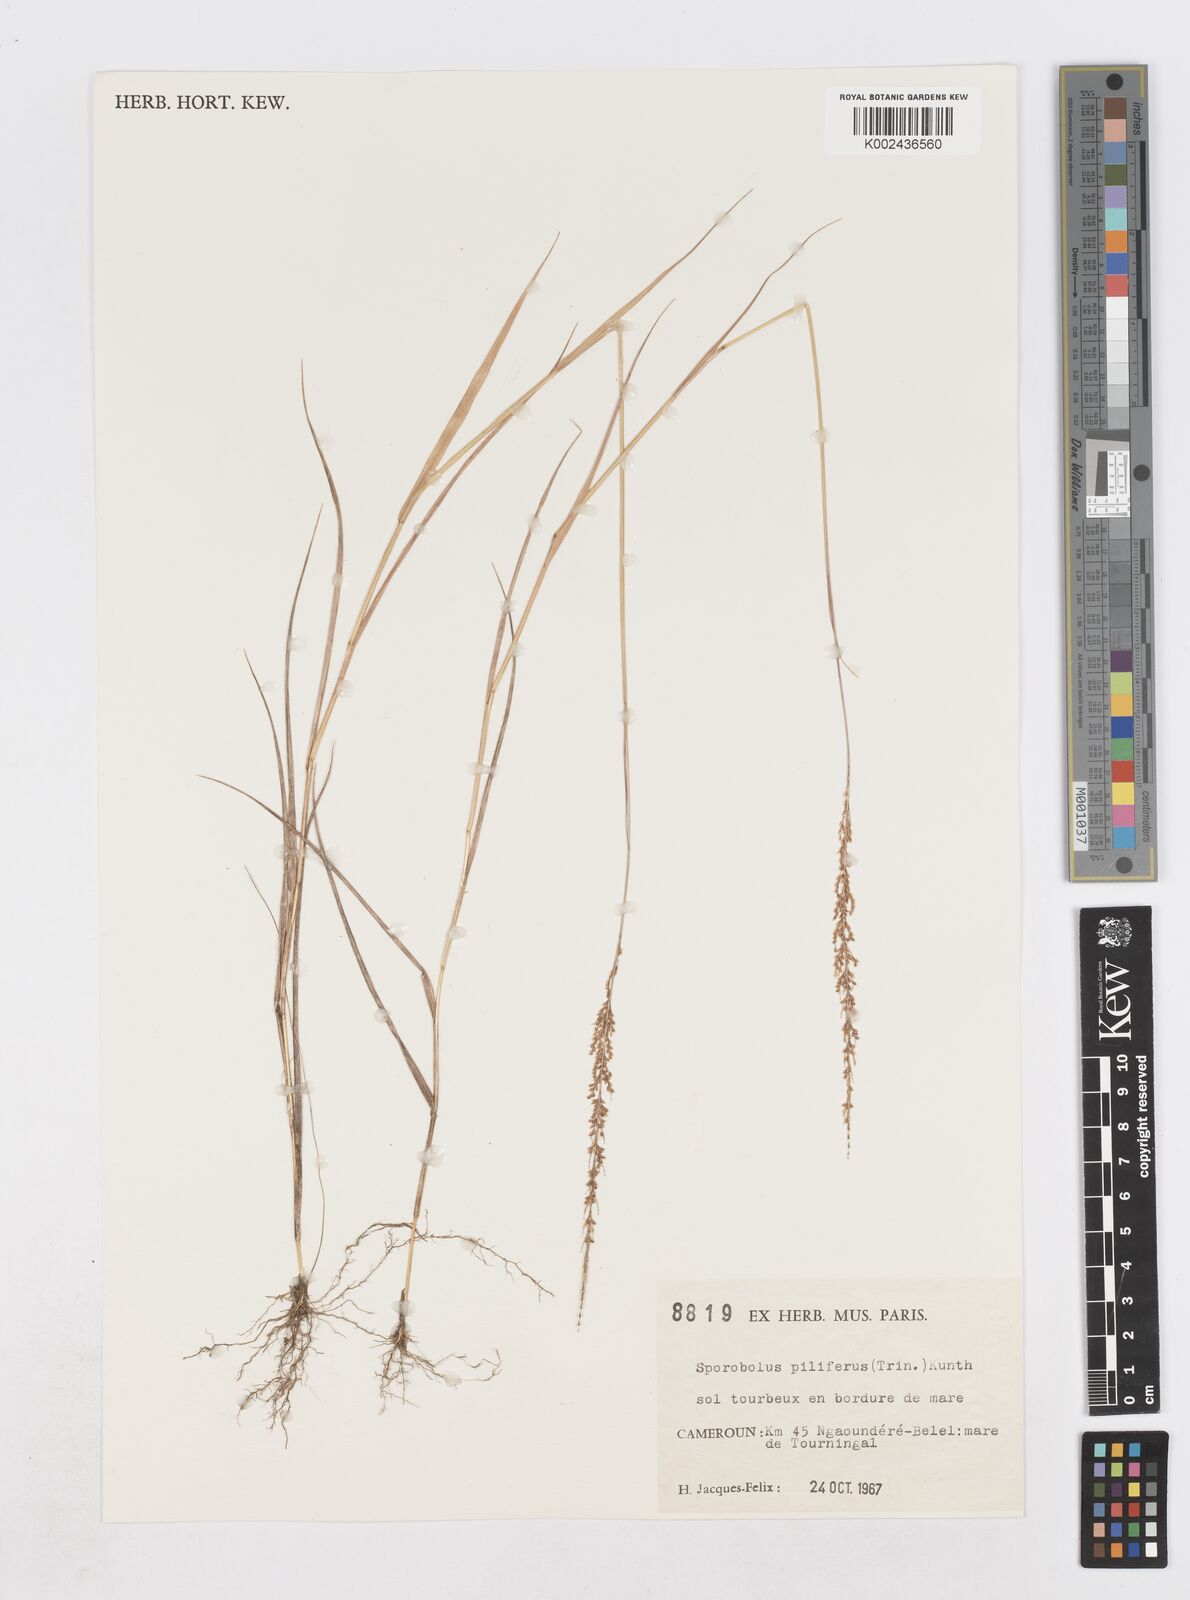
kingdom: Plantae
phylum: Tracheophyta
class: Liliopsida
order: Poales
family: Poaceae
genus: Sporobolus
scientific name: Sporobolus pilifer
